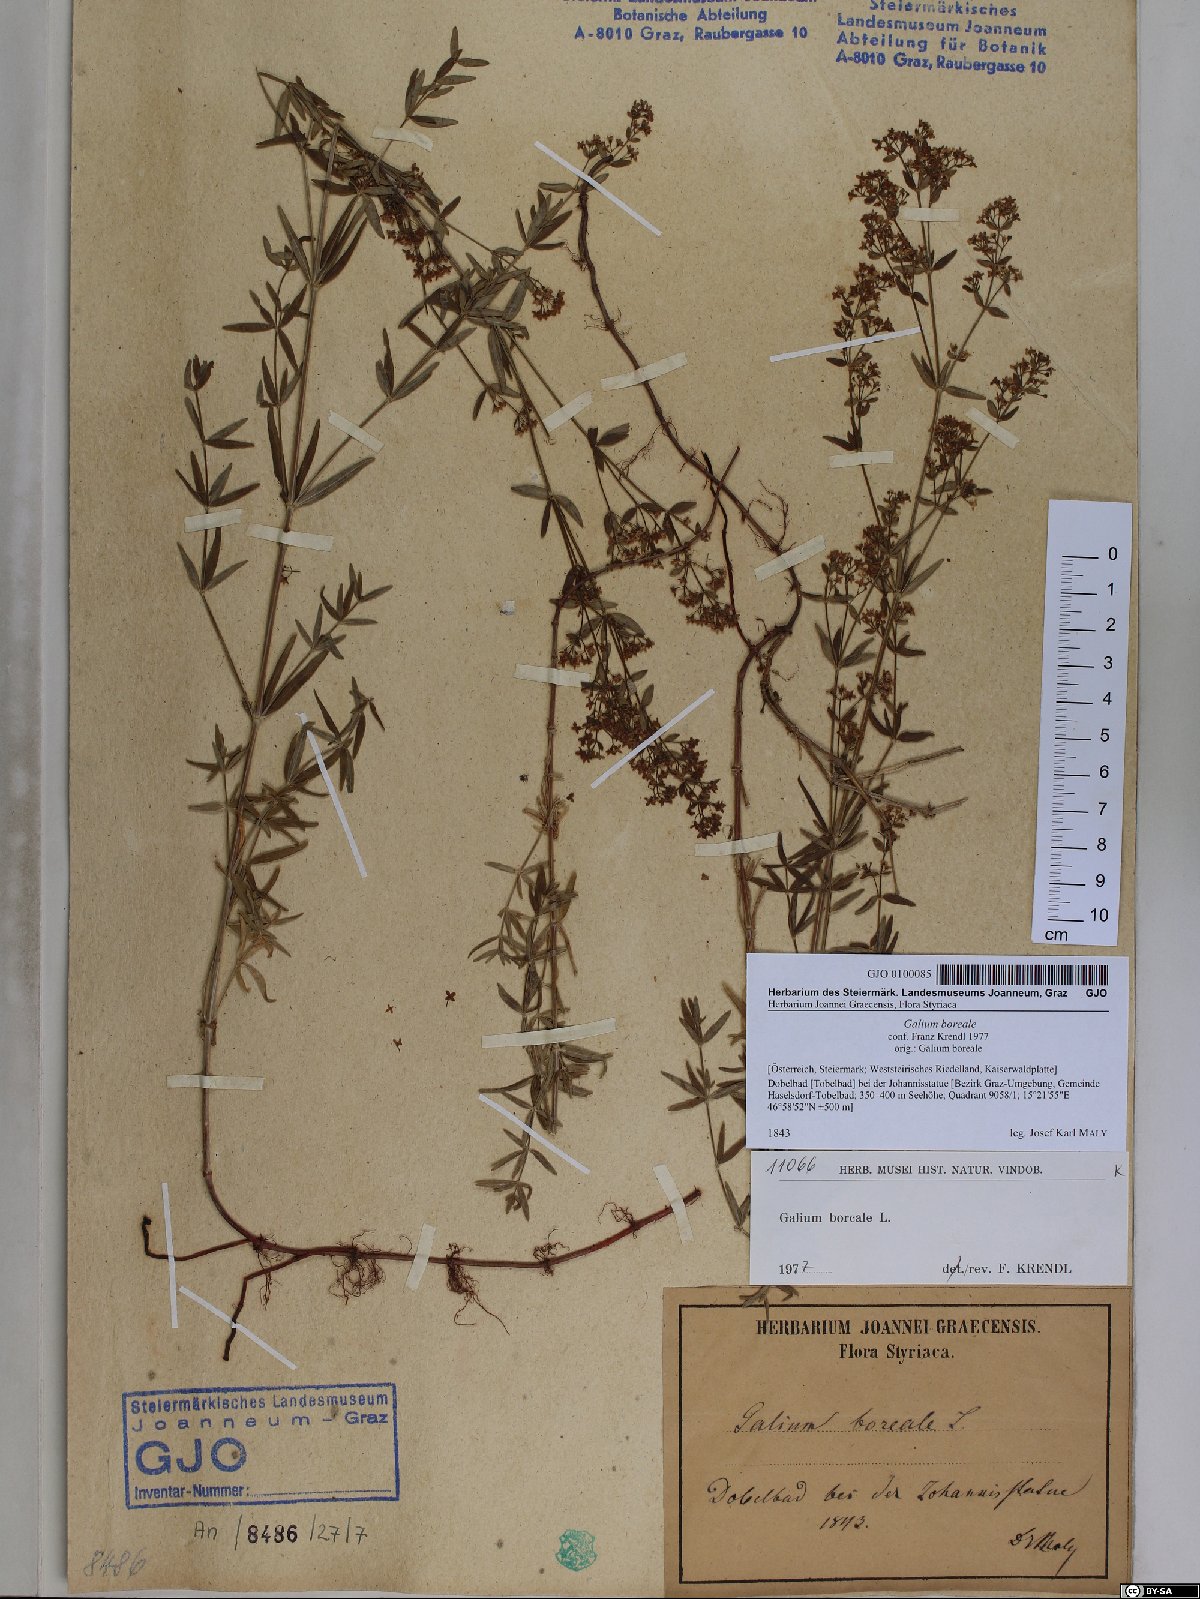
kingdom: Plantae
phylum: Tracheophyta
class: Magnoliopsida
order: Gentianales
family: Rubiaceae
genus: Galium
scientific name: Galium boreale
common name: Northern bedstraw
